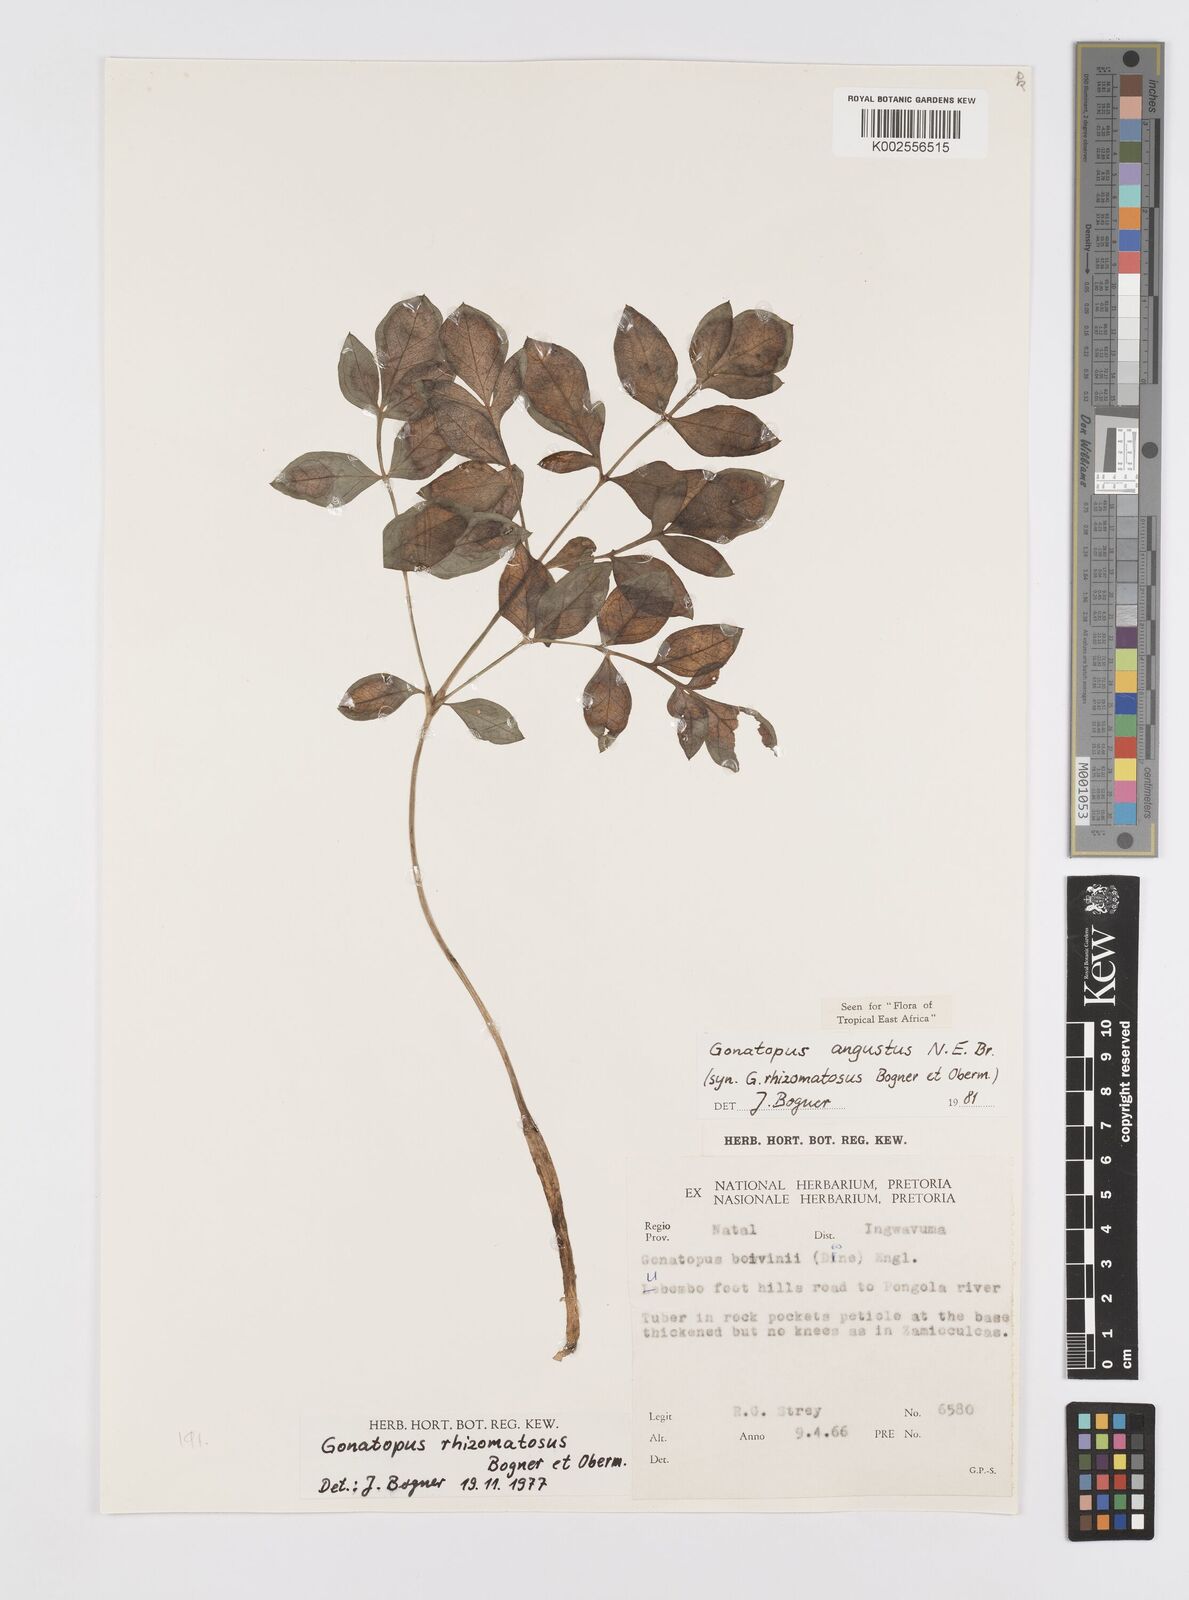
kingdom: Plantae
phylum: Tracheophyta
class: Liliopsida
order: Alismatales
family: Araceae
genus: Gonatopus
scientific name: Gonatopus angustus
